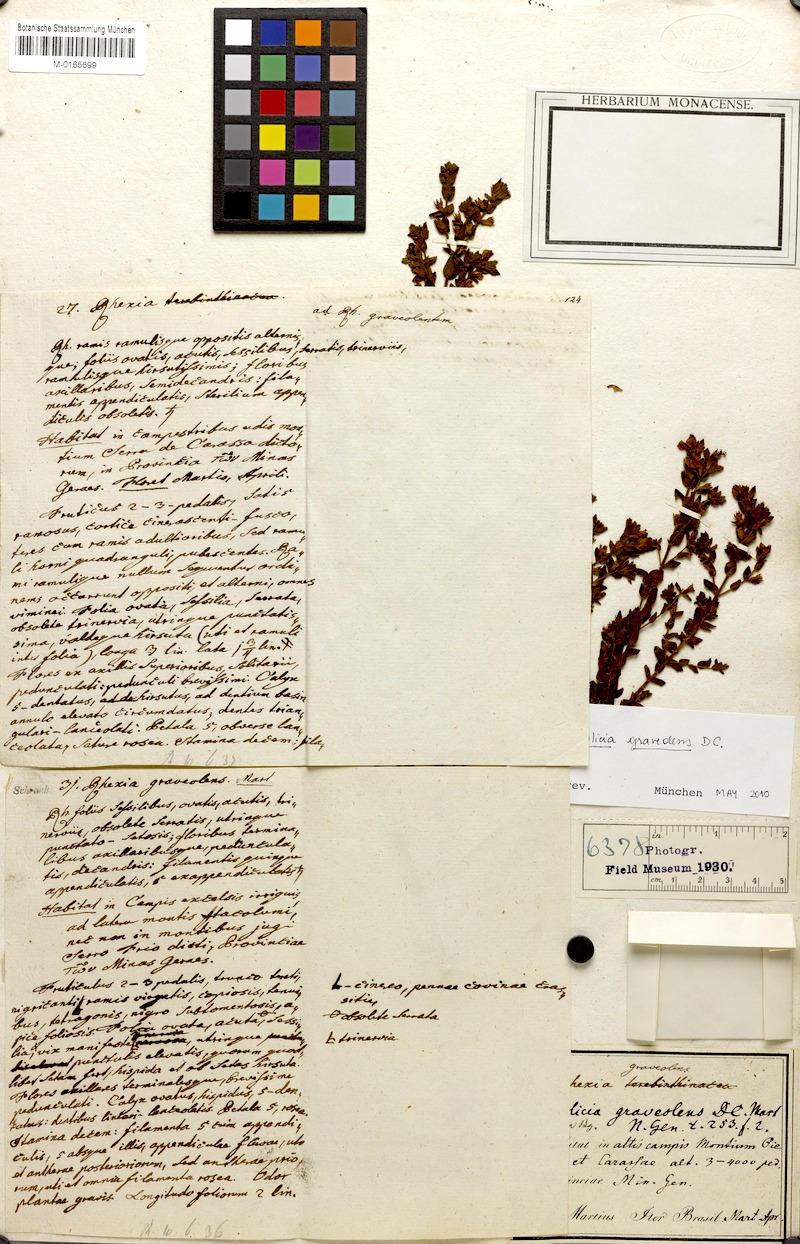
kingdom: Plantae
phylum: Tracheophyta
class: Magnoliopsida
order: Myrtales
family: Melastomataceae
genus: Microlicia
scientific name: Microlicia graveolens
